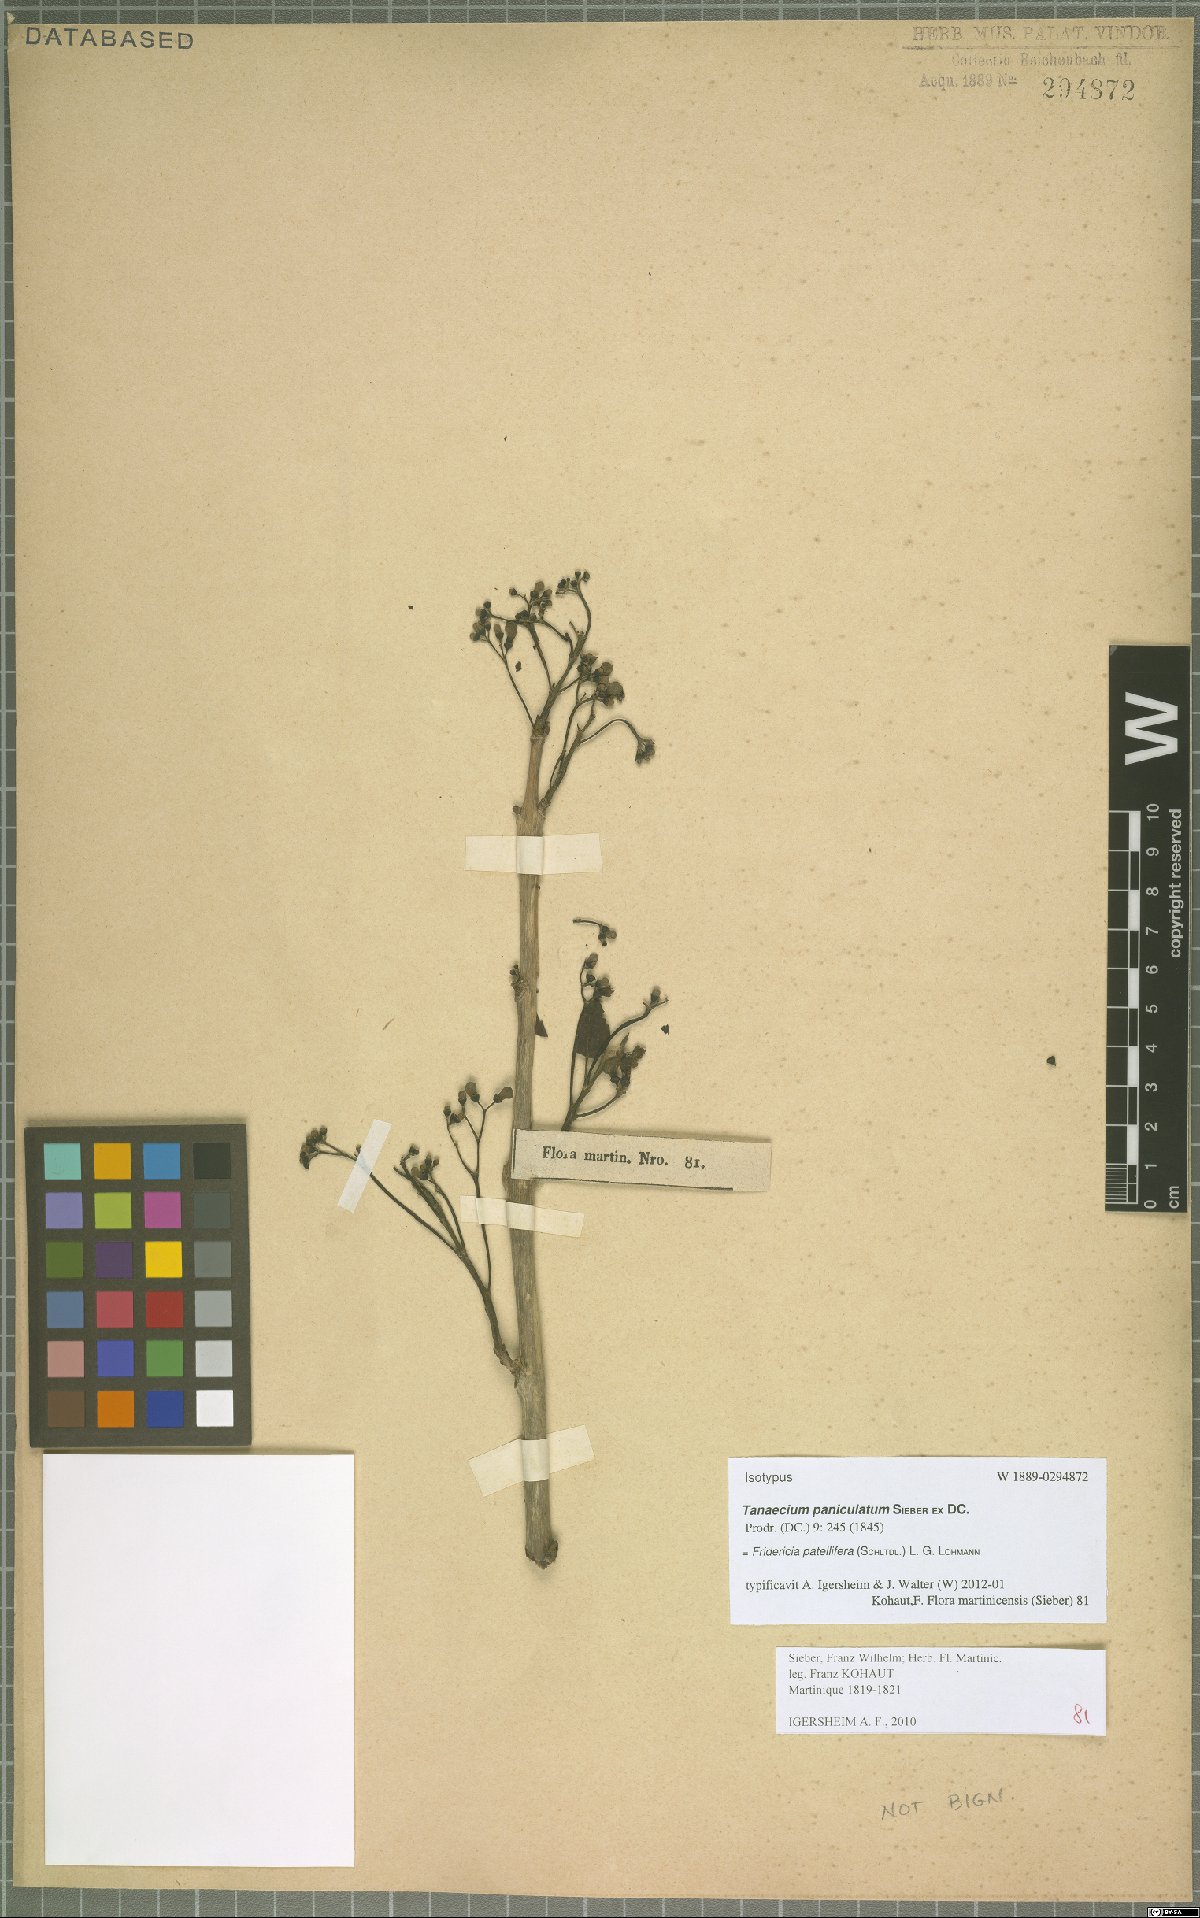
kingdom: Plantae
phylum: Tracheophyta
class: Magnoliopsida
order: Lamiales
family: Bignoniaceae
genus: Fridericia
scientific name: Fridericia patellifera
